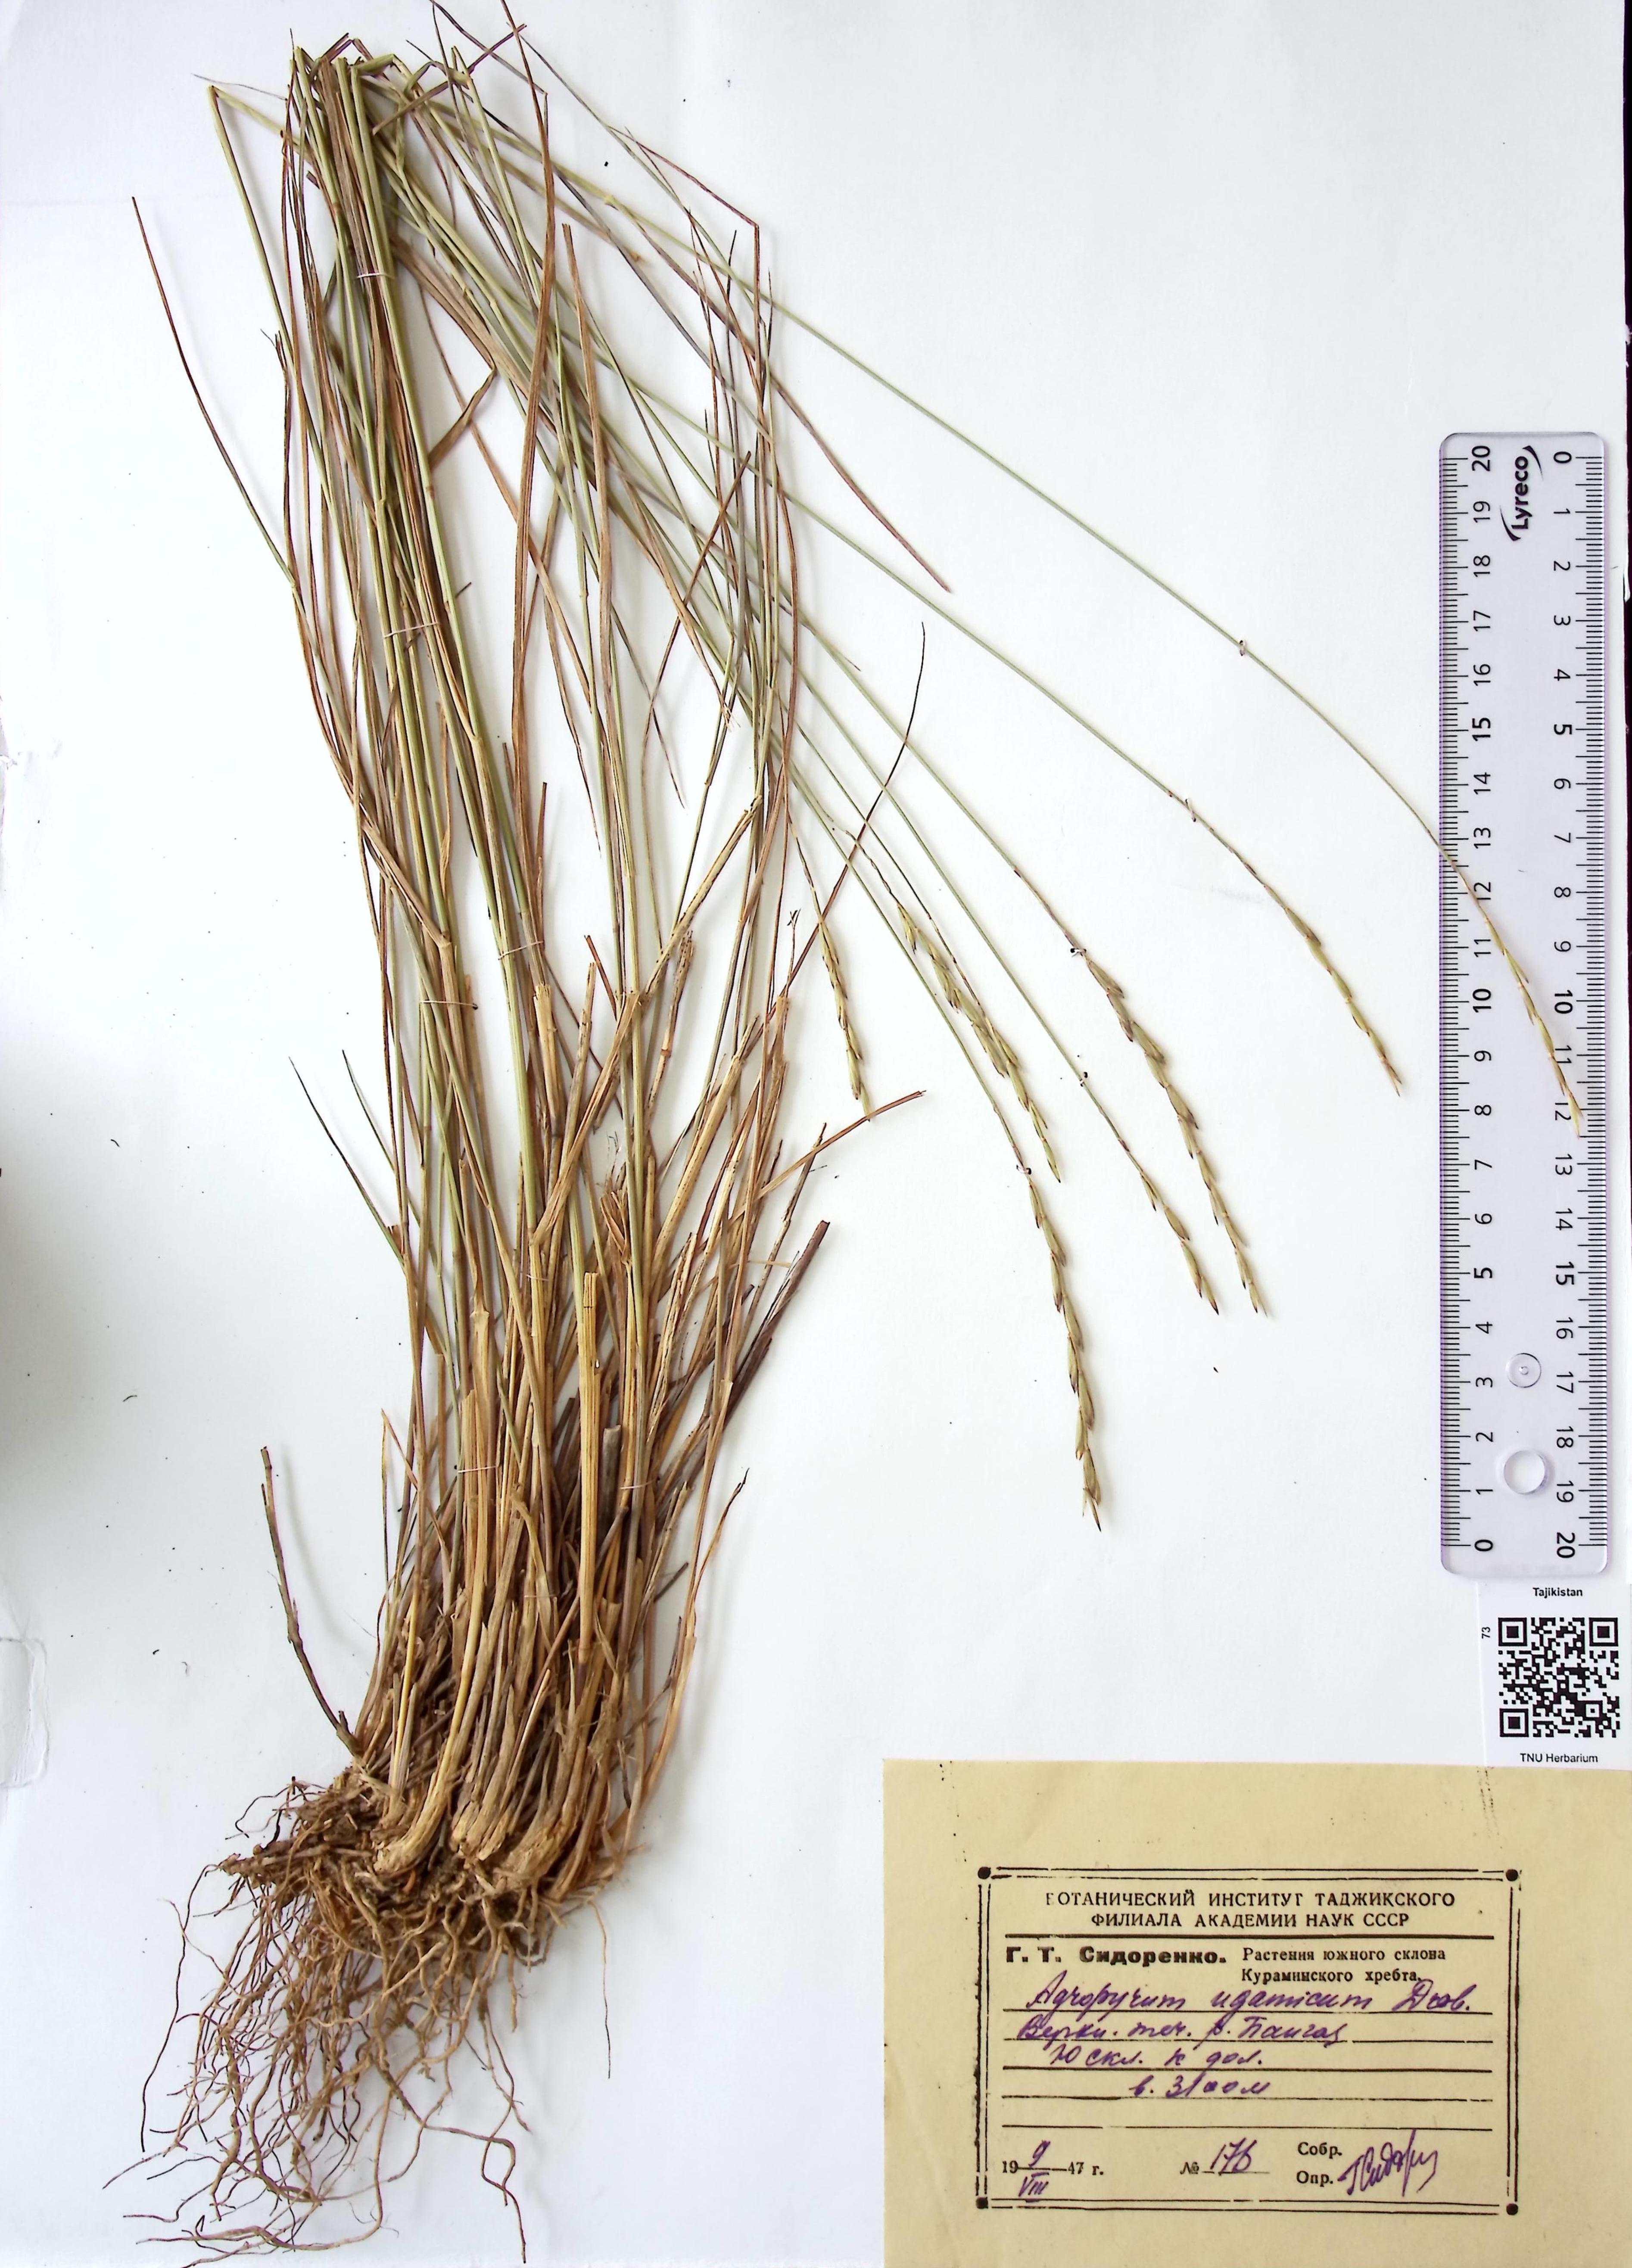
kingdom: Plantae
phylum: Tracheophyta
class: Liliopsida
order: Poales
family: Poaceae
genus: Elymus
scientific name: Elymus dentatus
